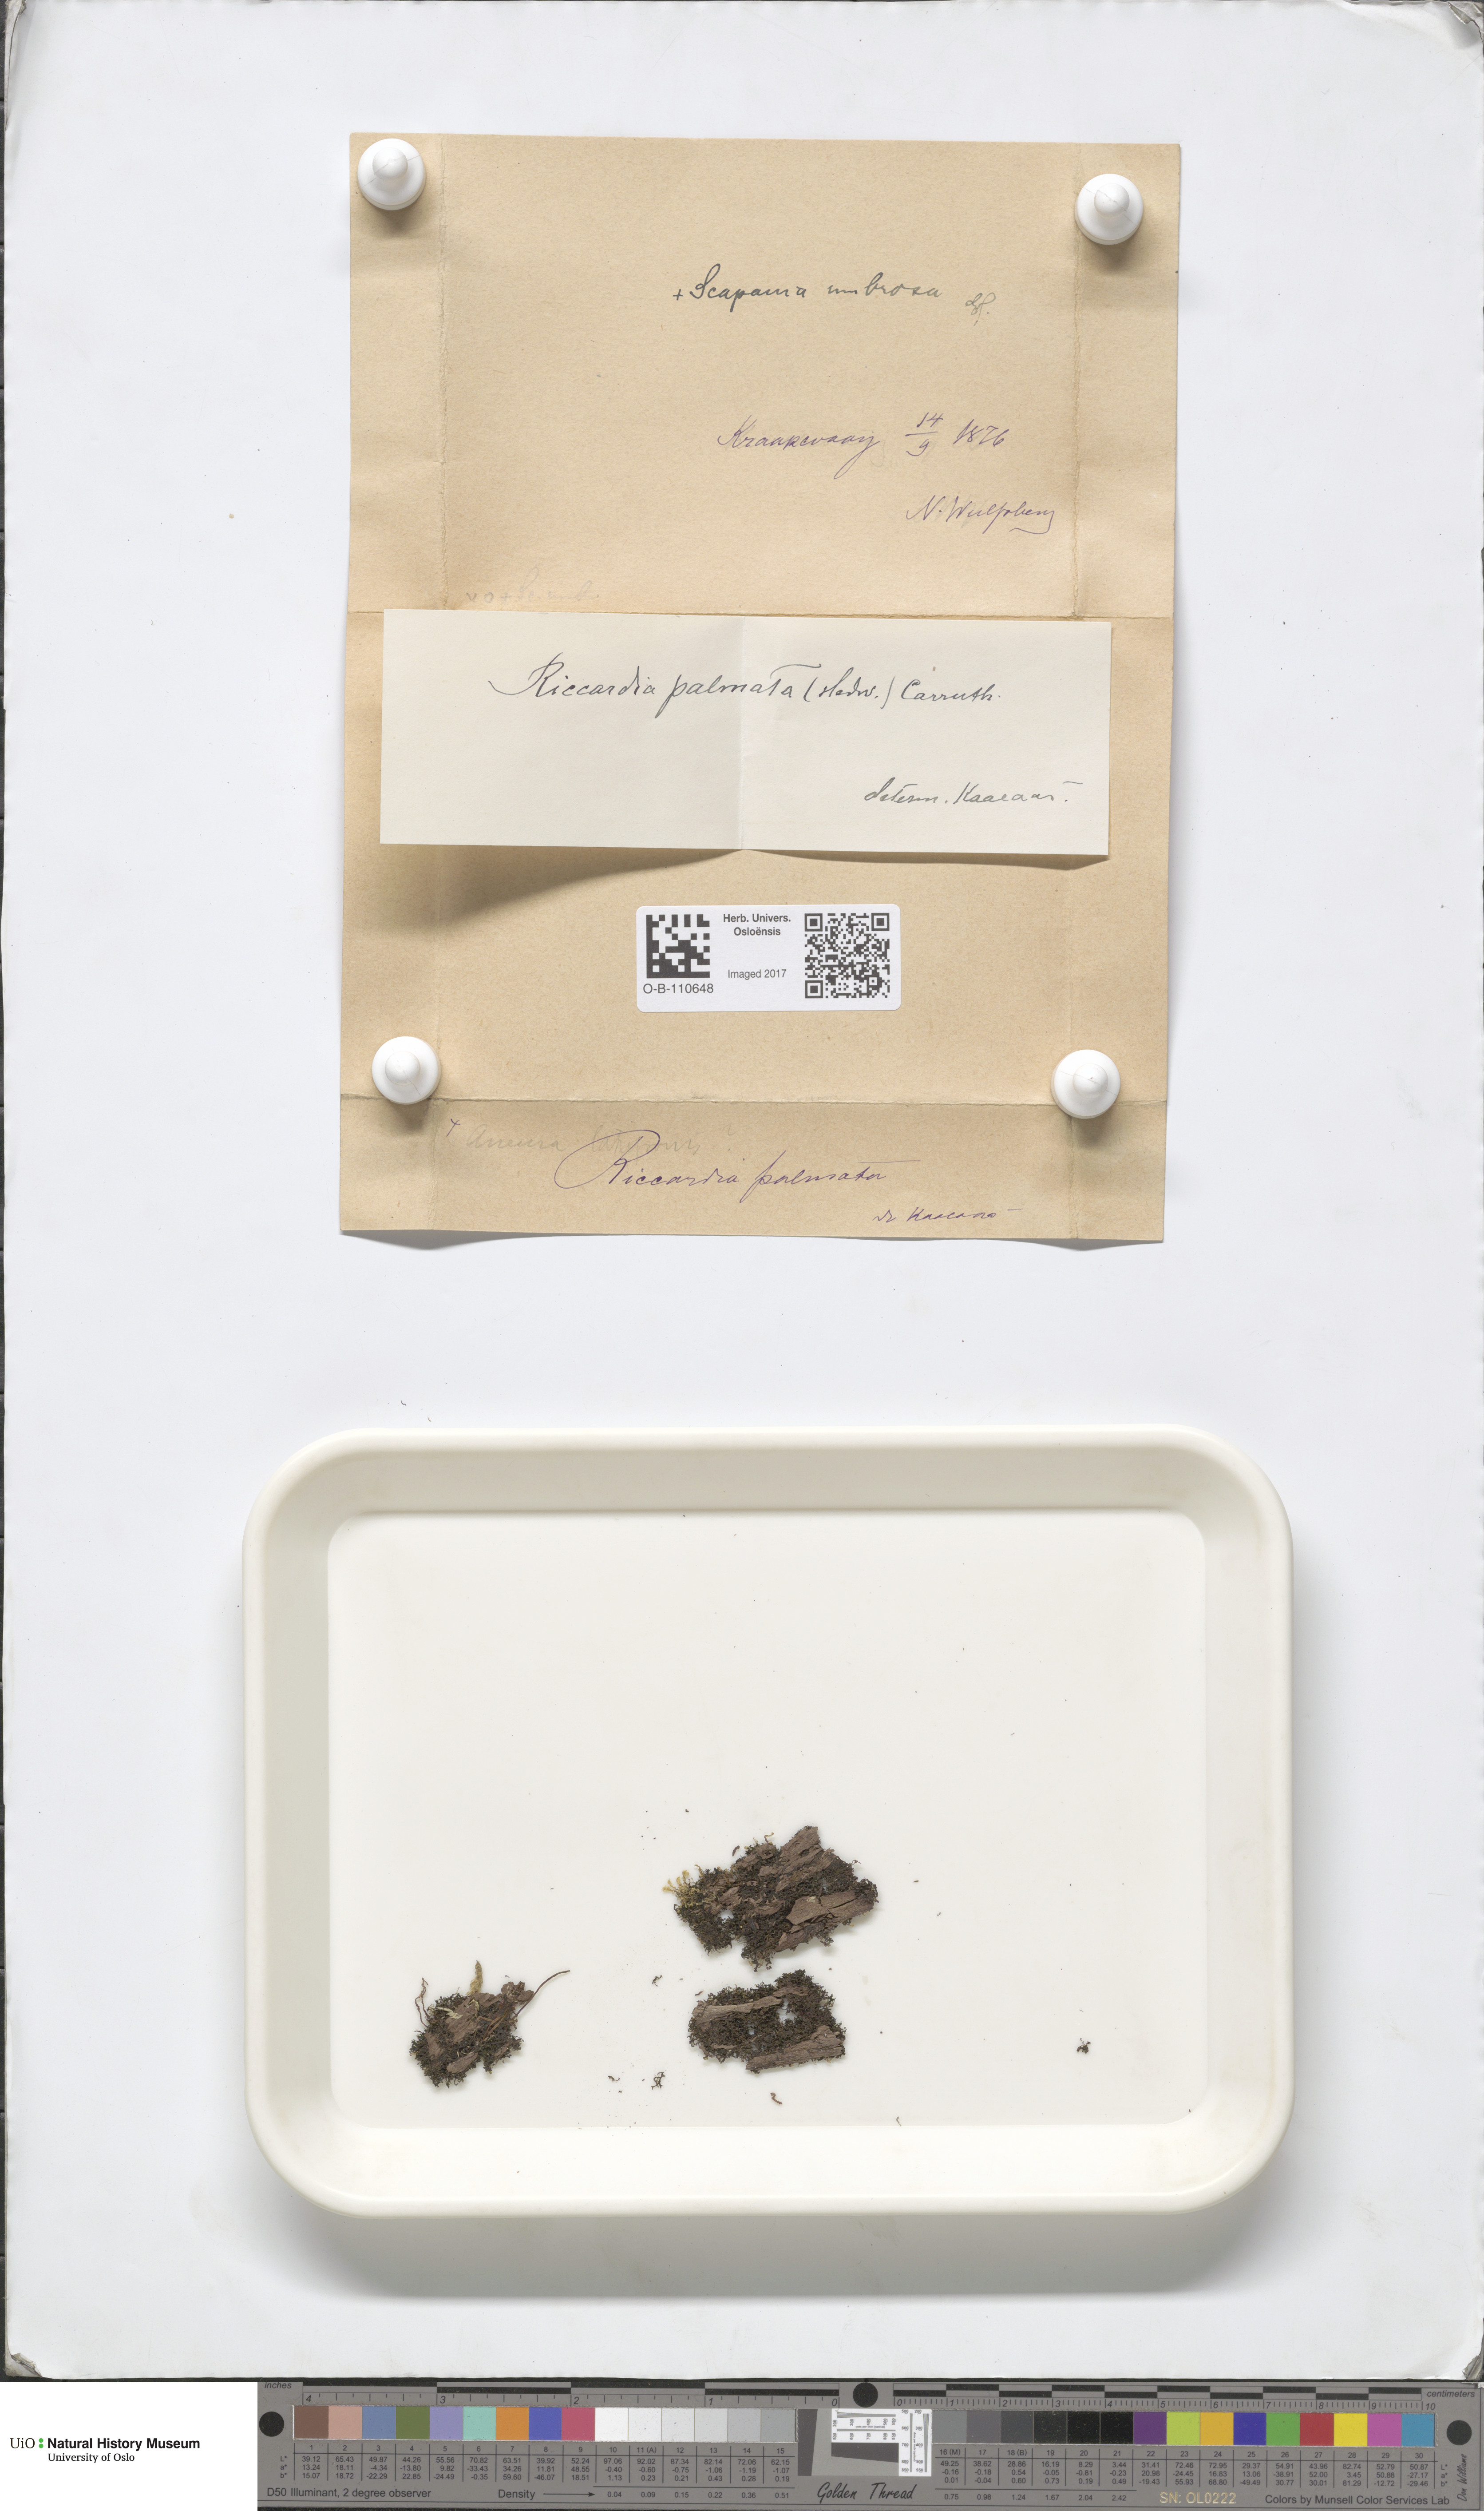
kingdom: Plantae
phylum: Marchantiophyta
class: Jungermanniopsida
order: Metzgeriales
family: Aneuraceae
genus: Riccardia
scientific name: Riccardia palmata
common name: Palmate germanderwort
